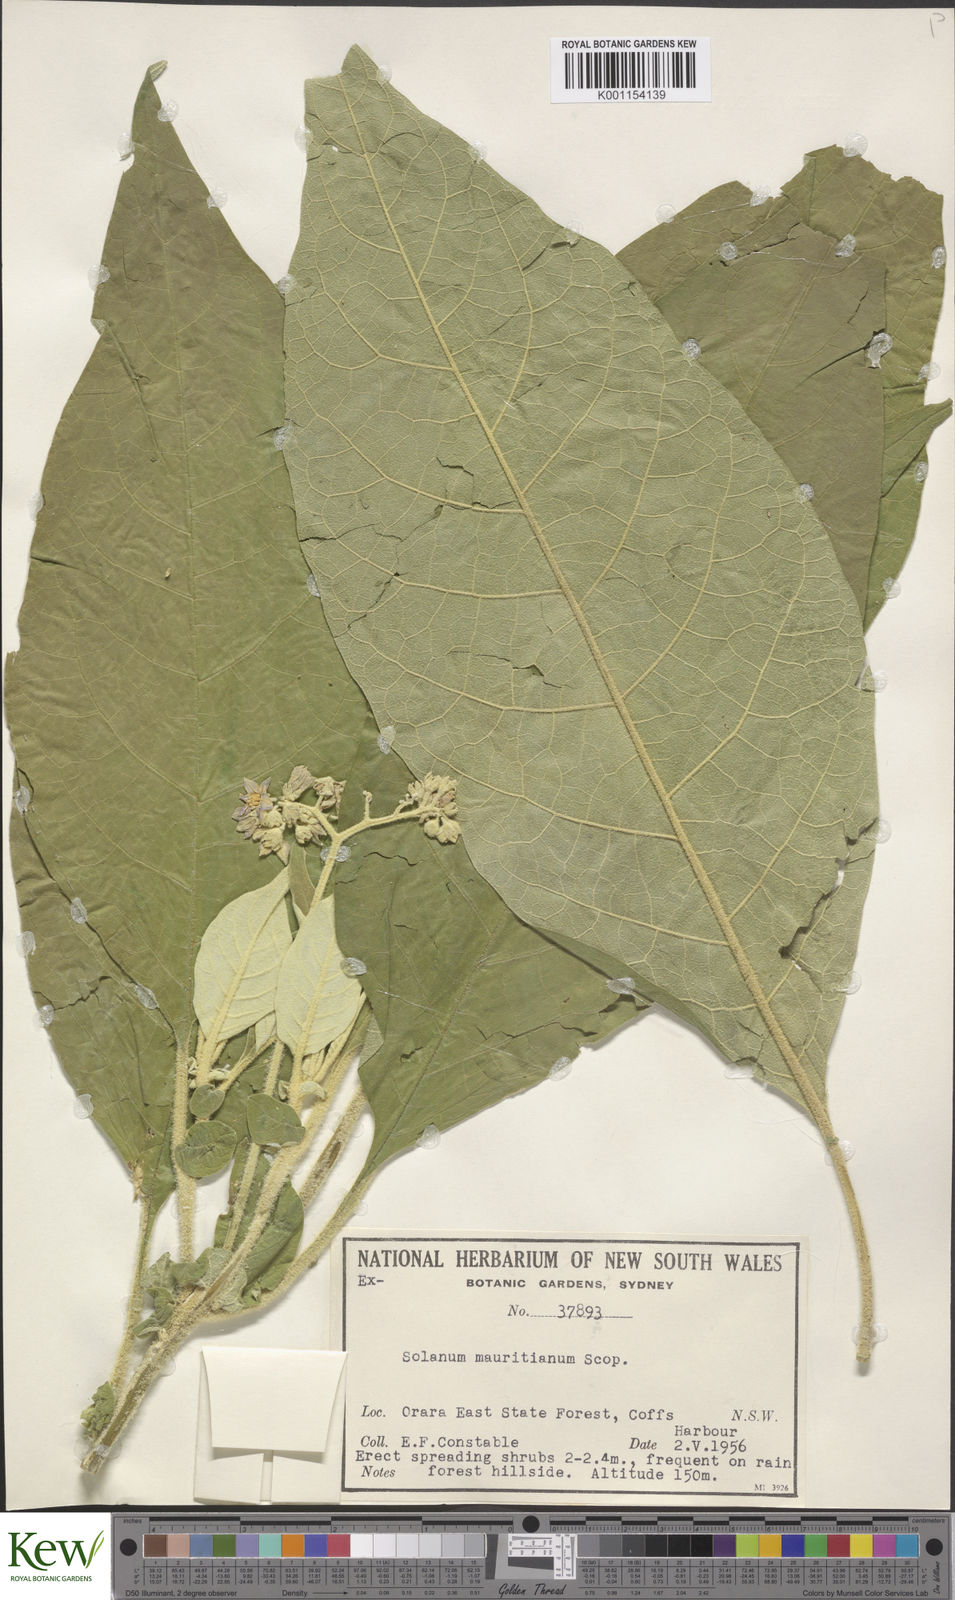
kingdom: Plantae
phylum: Tracheophyta
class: Magnoliopsida
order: Solanales
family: Solanaceae
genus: Solanum
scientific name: Solanum mauritianum
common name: Earleaf nightshade
